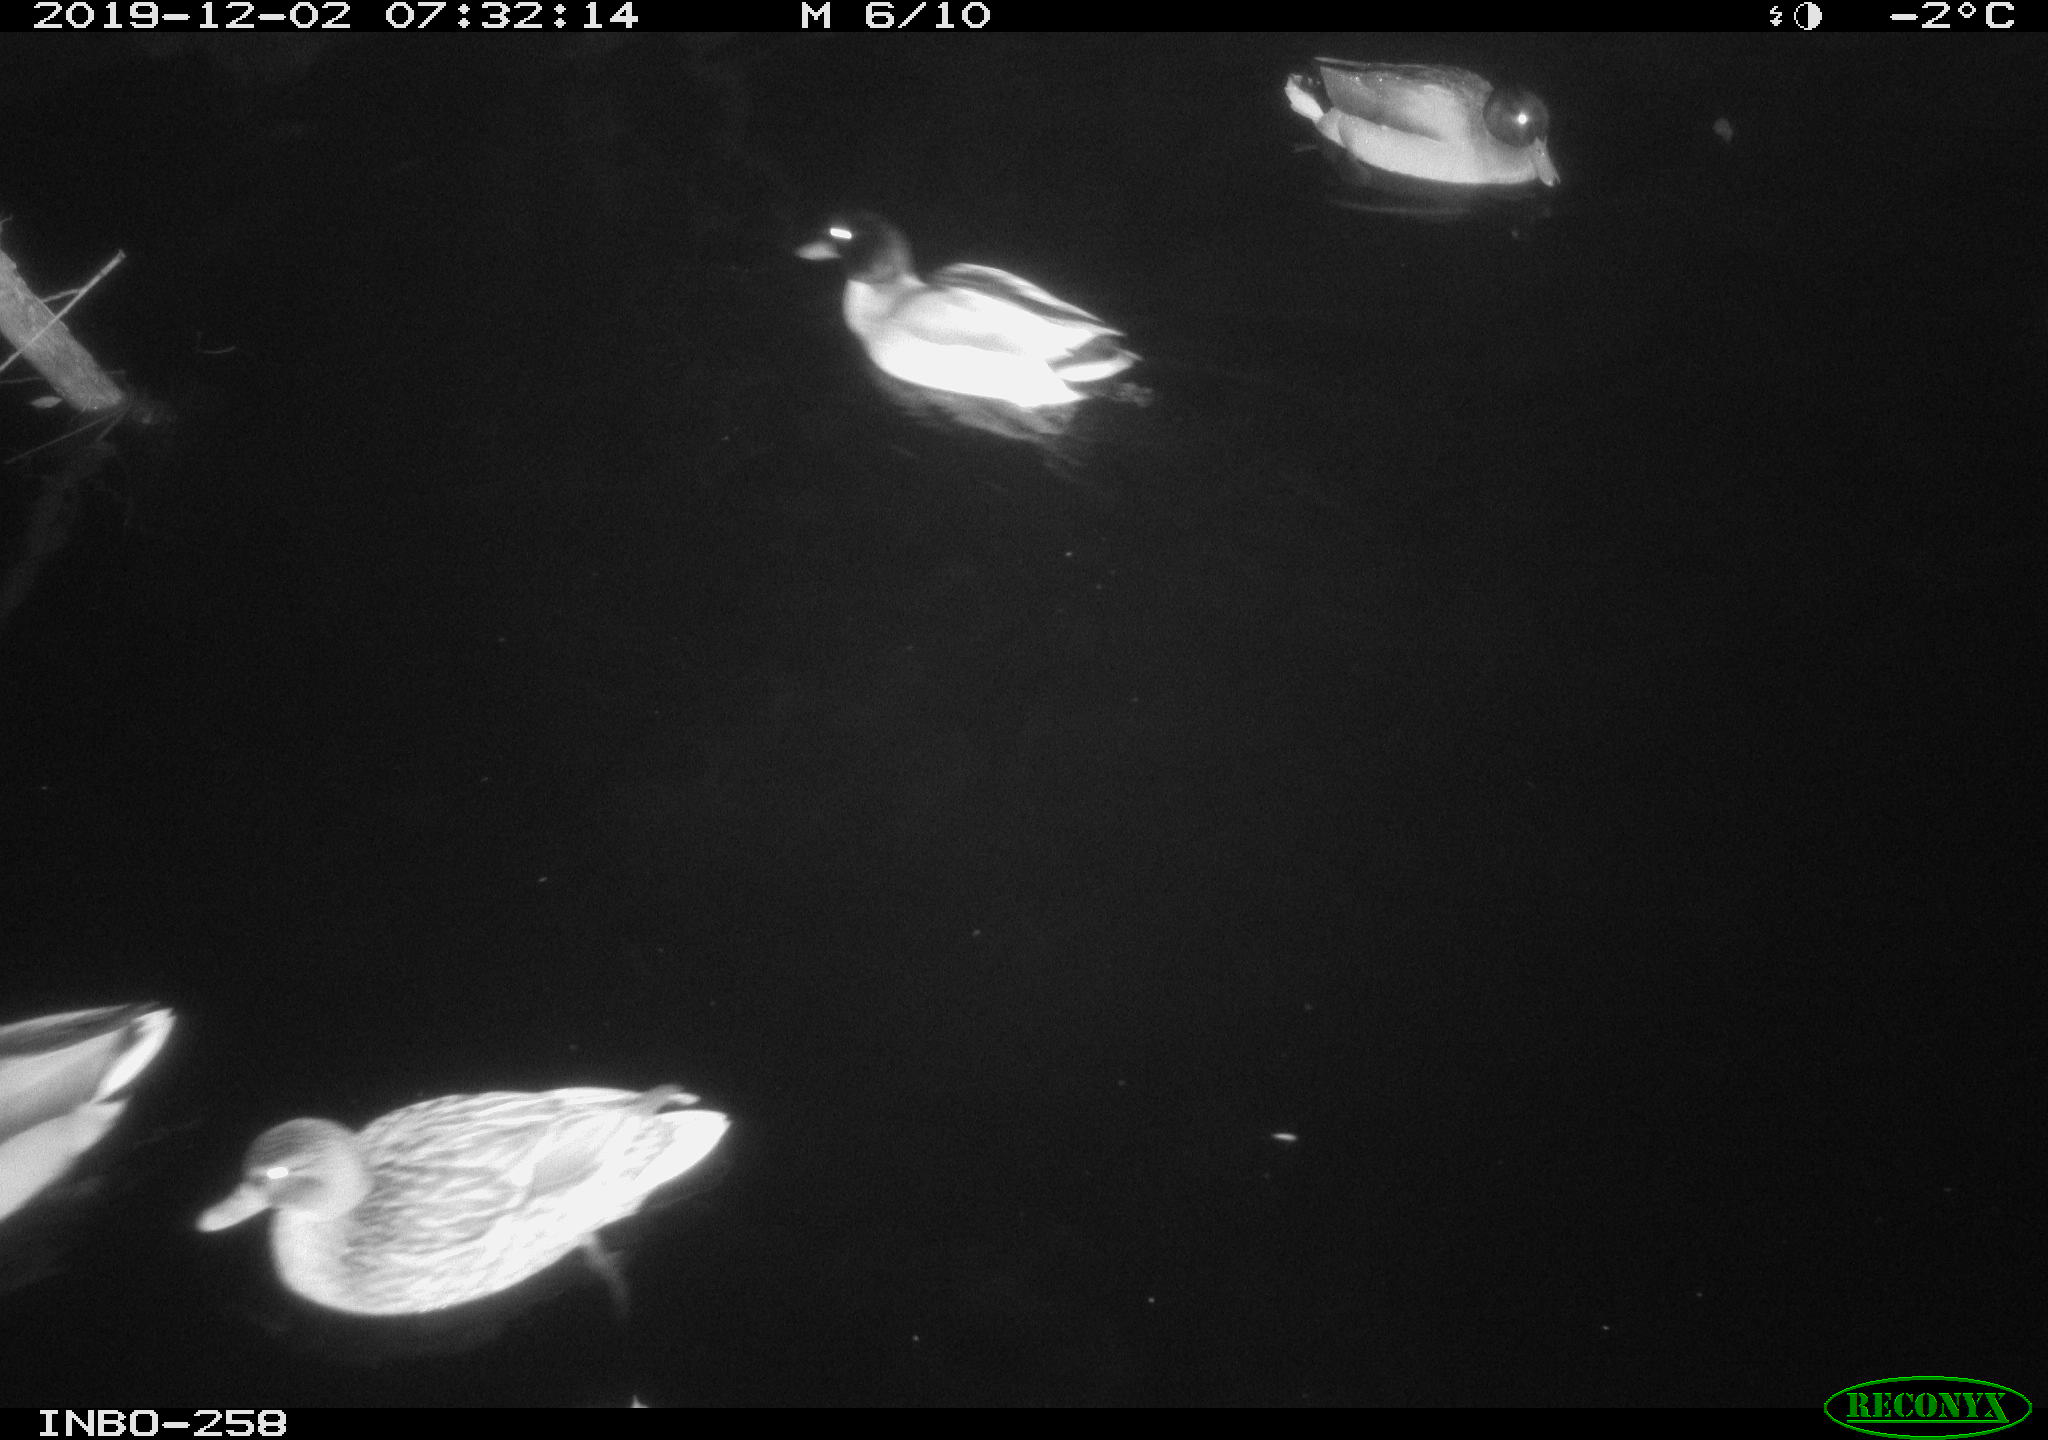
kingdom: Animalia
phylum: Chordata
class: Aves
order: Gruiformes
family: Rallidae
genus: Gallinula
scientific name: Gallinula chloropus
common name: Common moorhen
